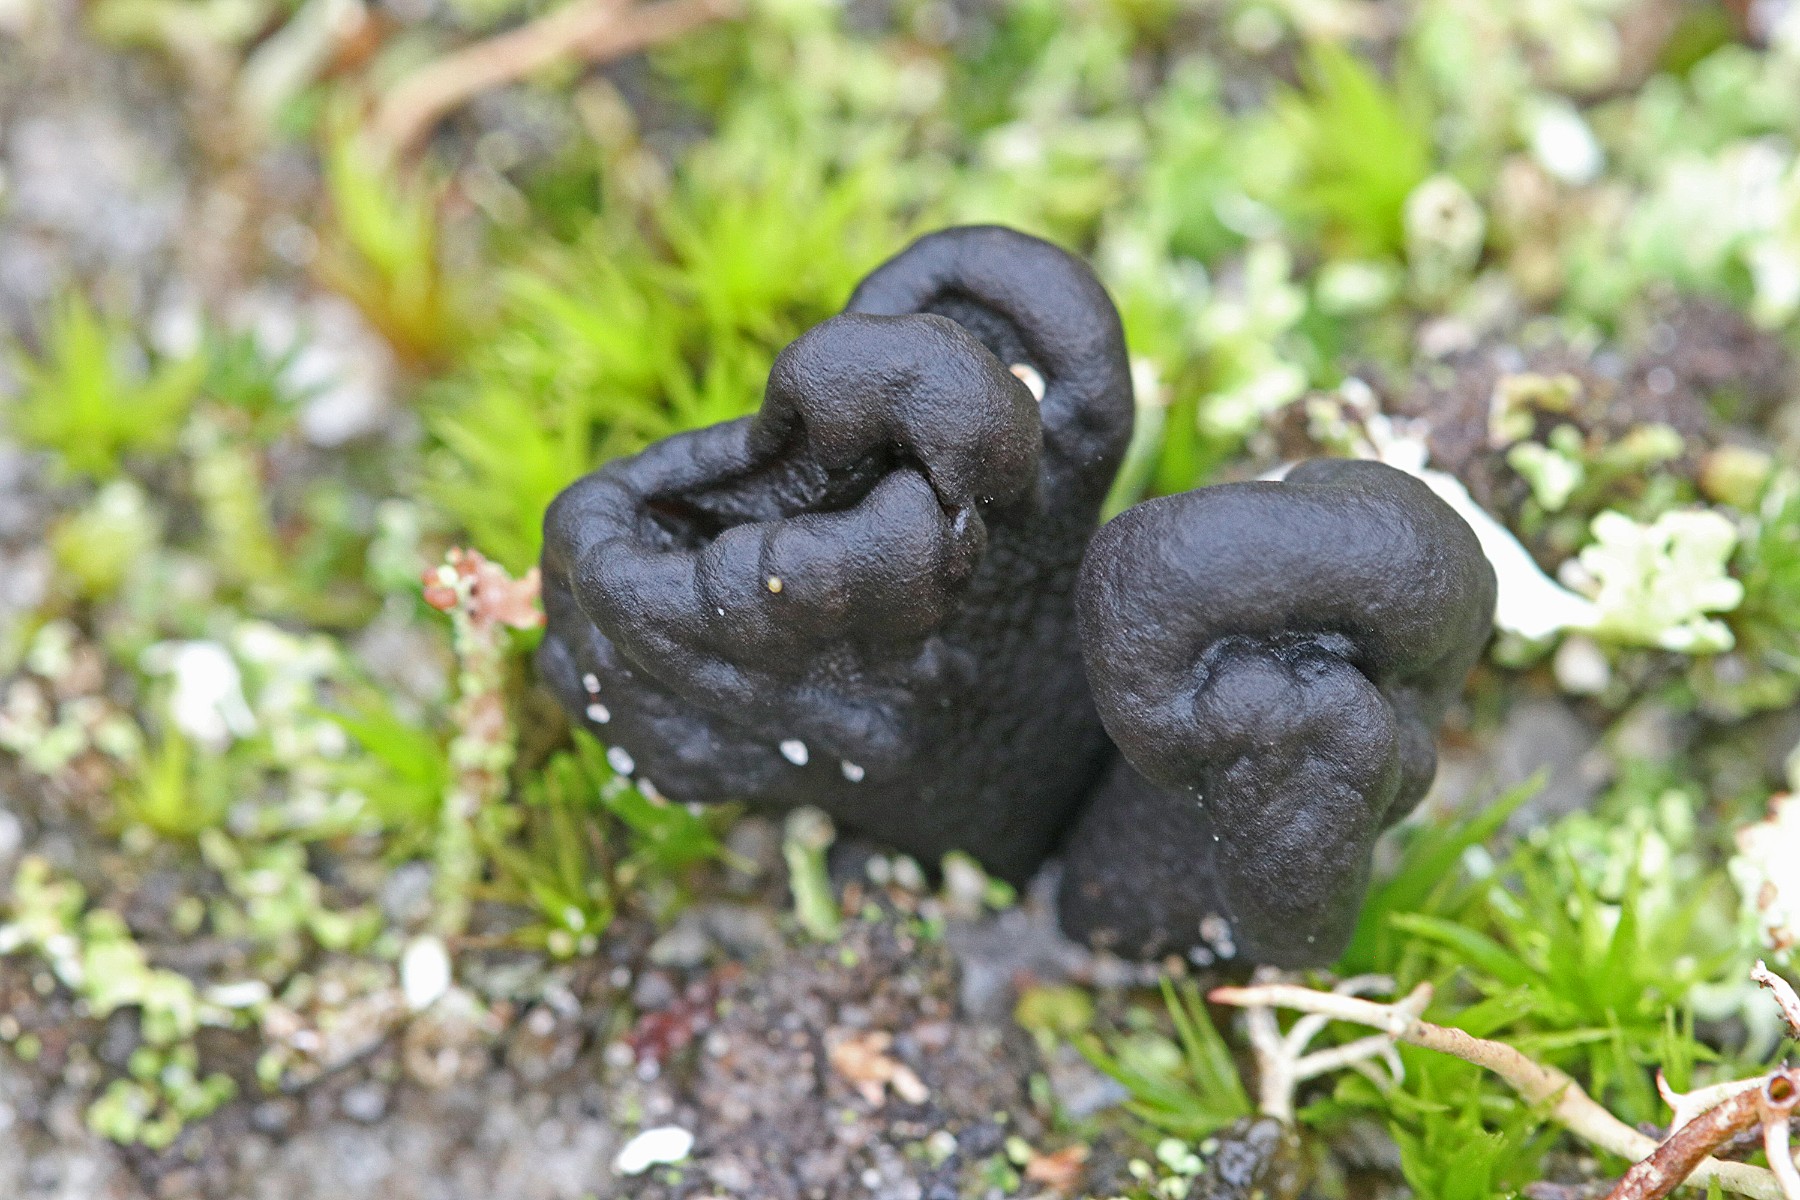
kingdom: Fungi
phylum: Ascomycota
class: Geoglossomycetes
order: Geoglossales
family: Geoglossaceae
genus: Sabuloglossum
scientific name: Sabuloglossum arenarium
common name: klit-jordtunge
